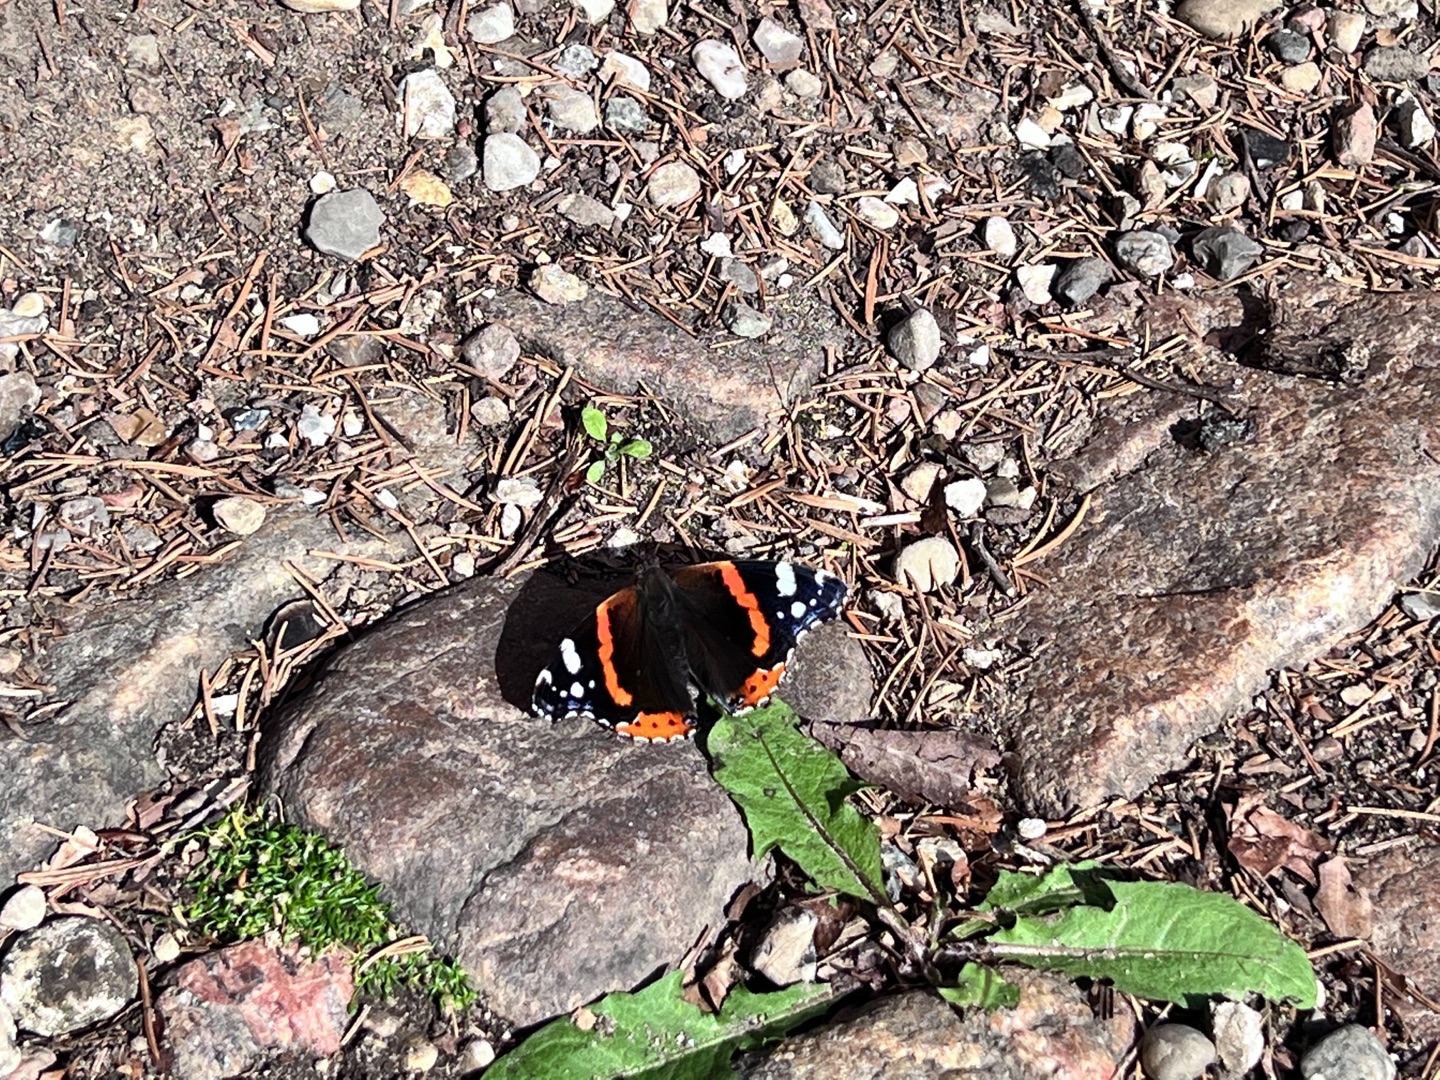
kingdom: Animalia
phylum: Arthropoda
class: Insecta
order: Lepidoptera
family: Nymphalidae
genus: Vanessa
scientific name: Vanessa atalanta
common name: Admiral
